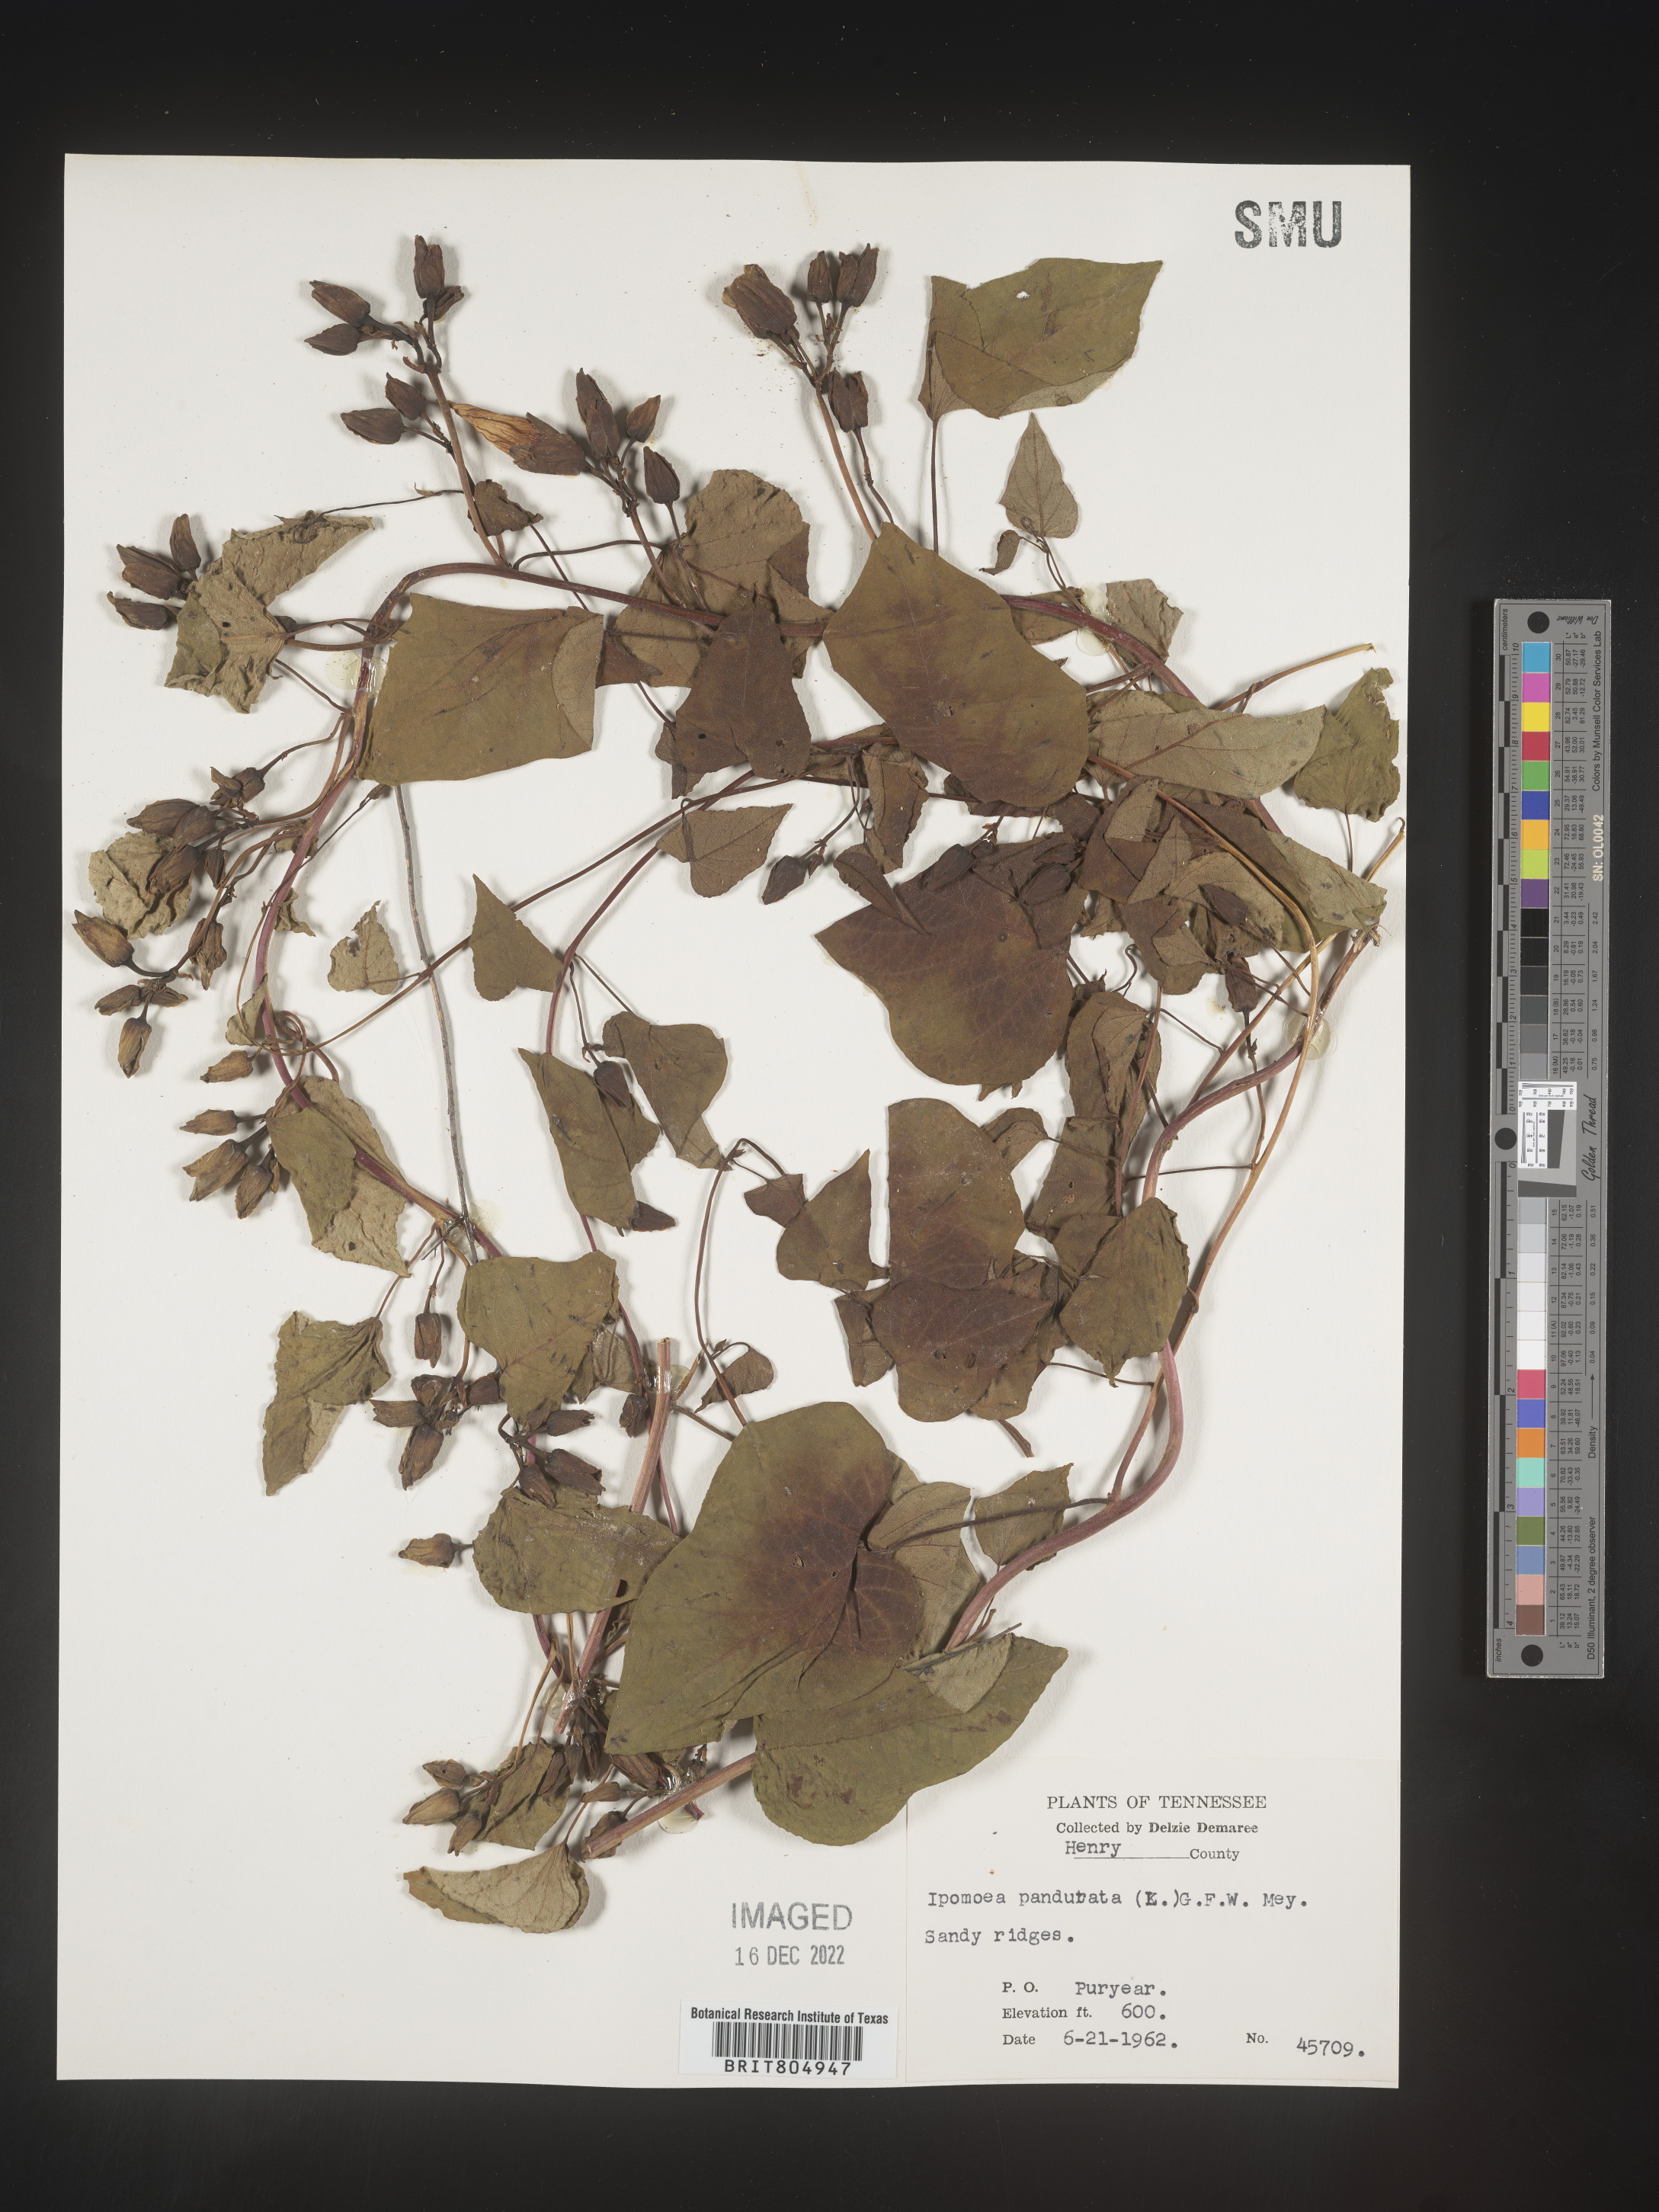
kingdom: Plantae
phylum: Tracheophyta
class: Magnoliopsida
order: Solanales
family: Convolvulaceae
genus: Ipomoea
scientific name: Ipomoea pandurata
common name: Man-of-the-earth
